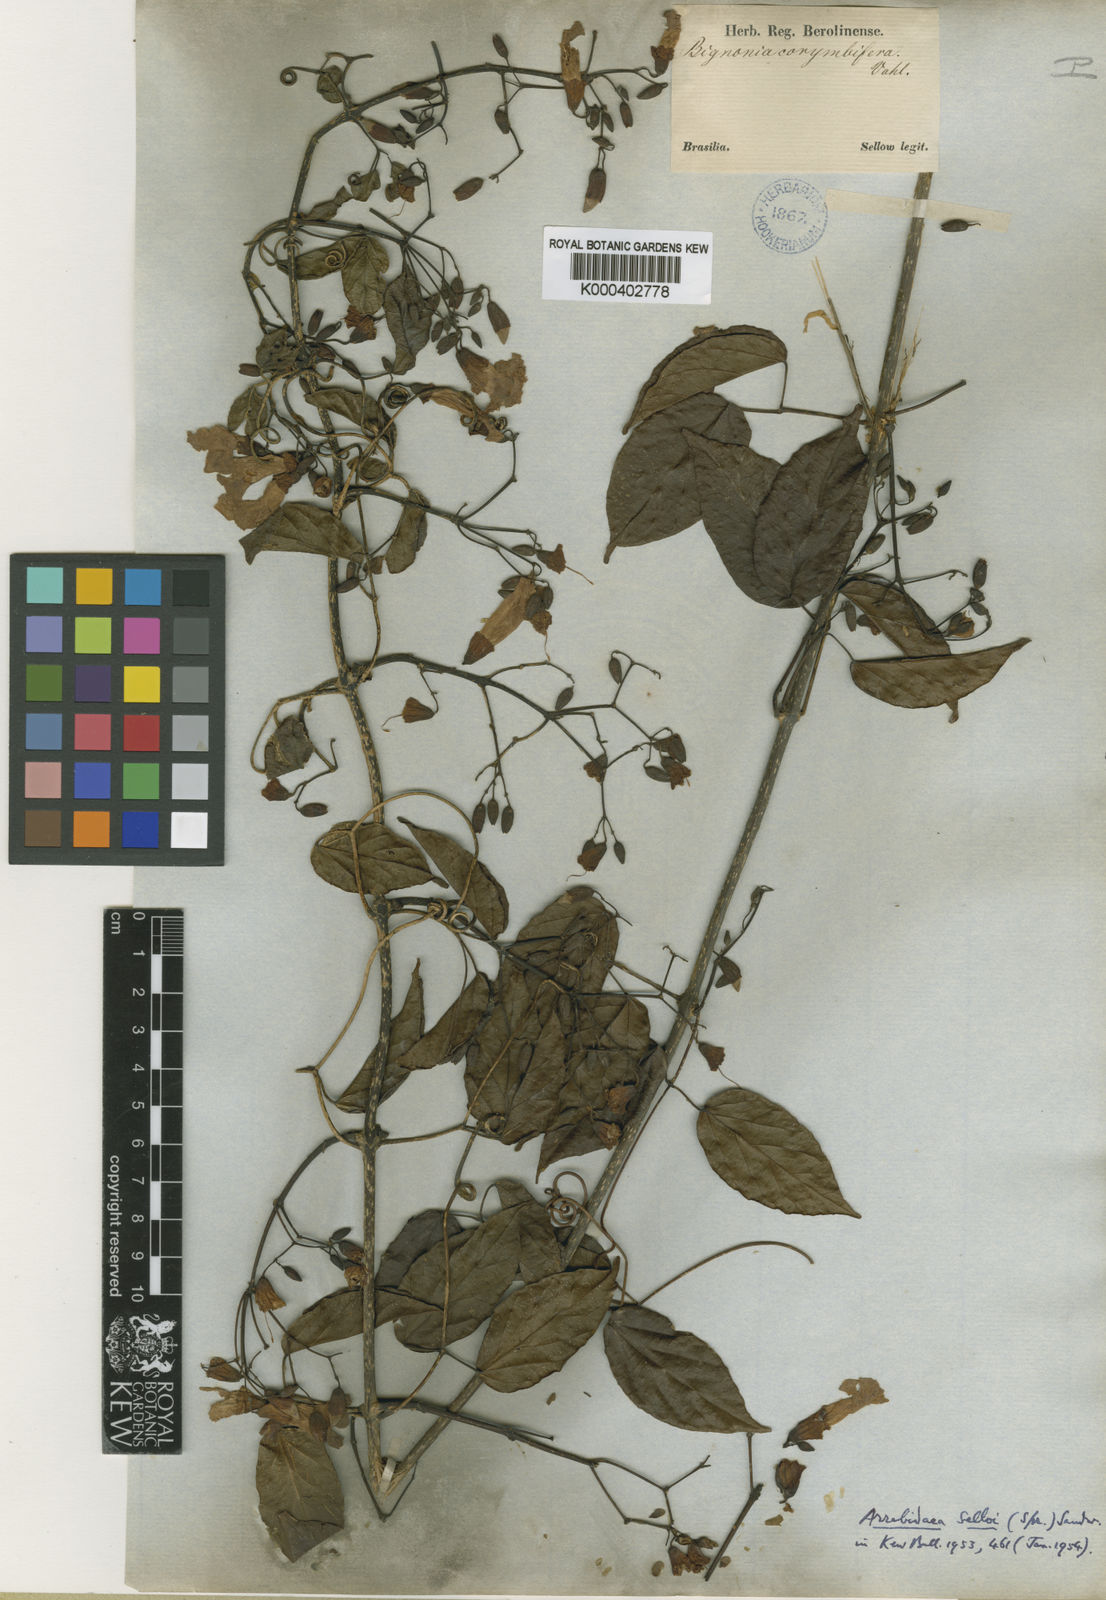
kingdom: Plantae
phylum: Tracheophyta
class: Magnoliopsida
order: Lamiales
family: Bignoniaceae
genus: Tanaecium
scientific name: Tanaecium selloi
